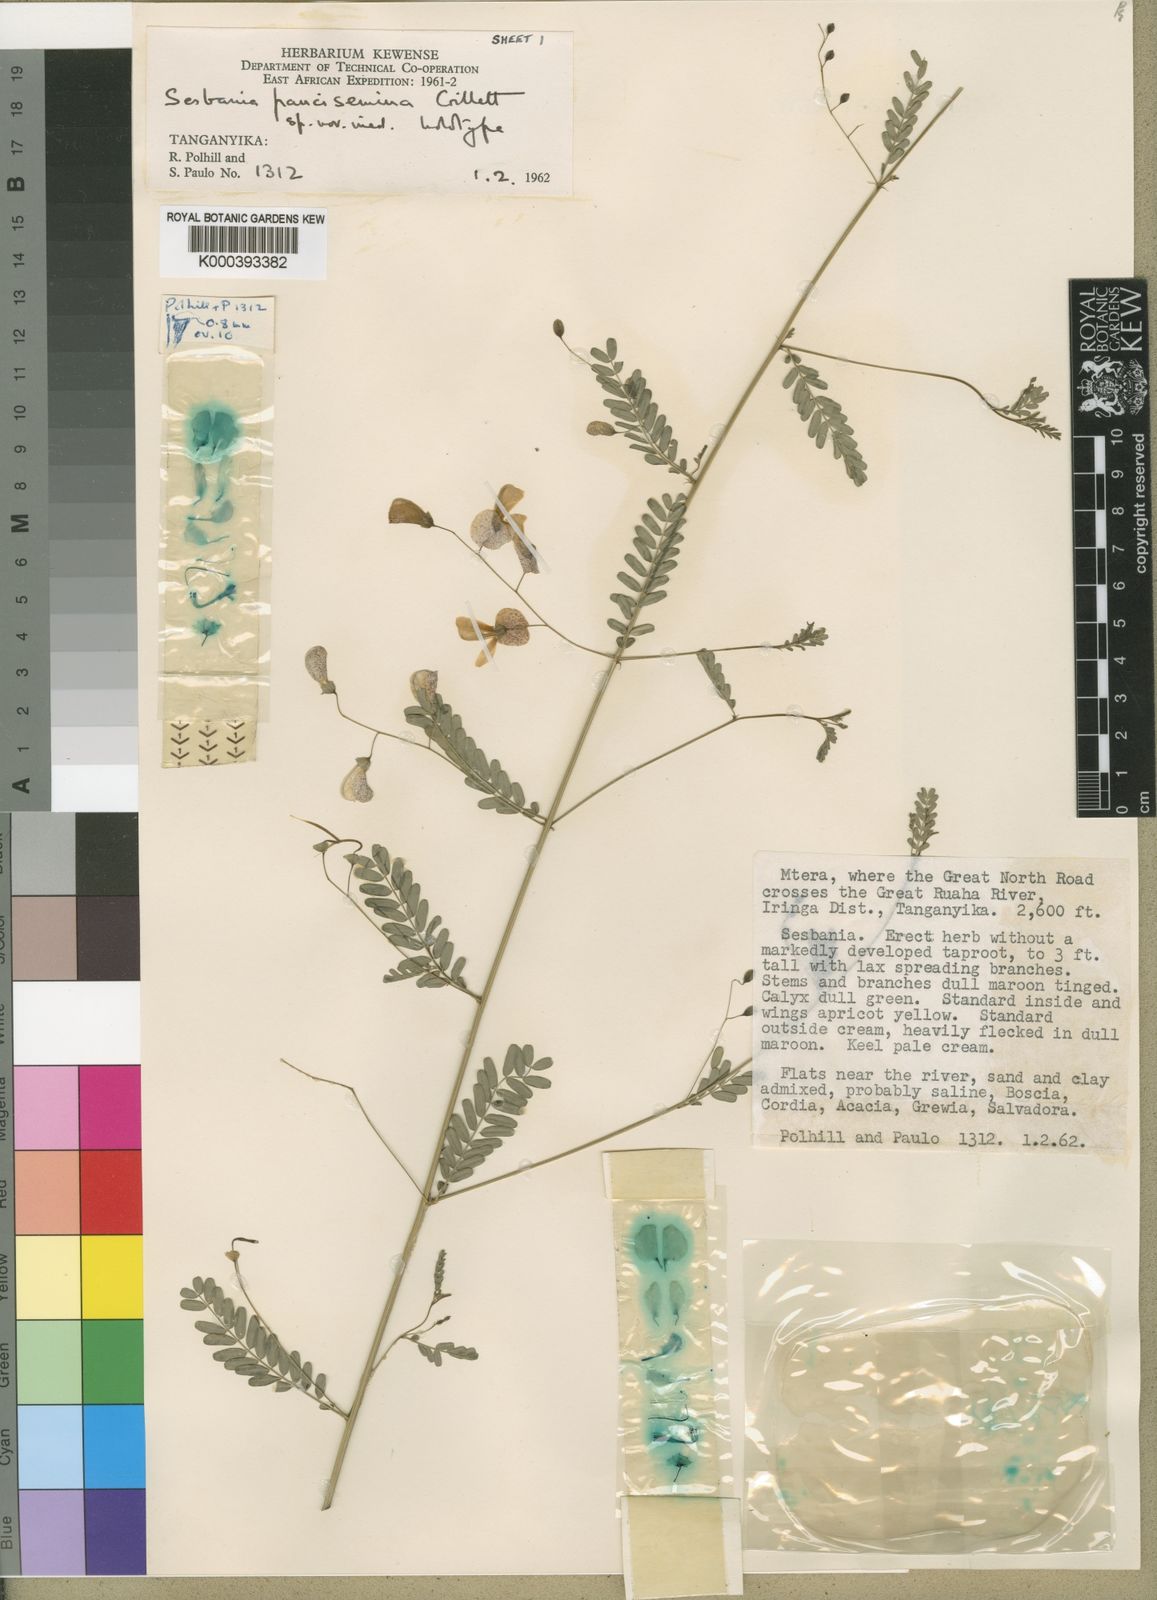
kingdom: Plantae
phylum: Tracheophyta
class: Magnoliopsida
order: Fabales
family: Fabaceae
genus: Sesbania
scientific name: Sesbania paucisemina
